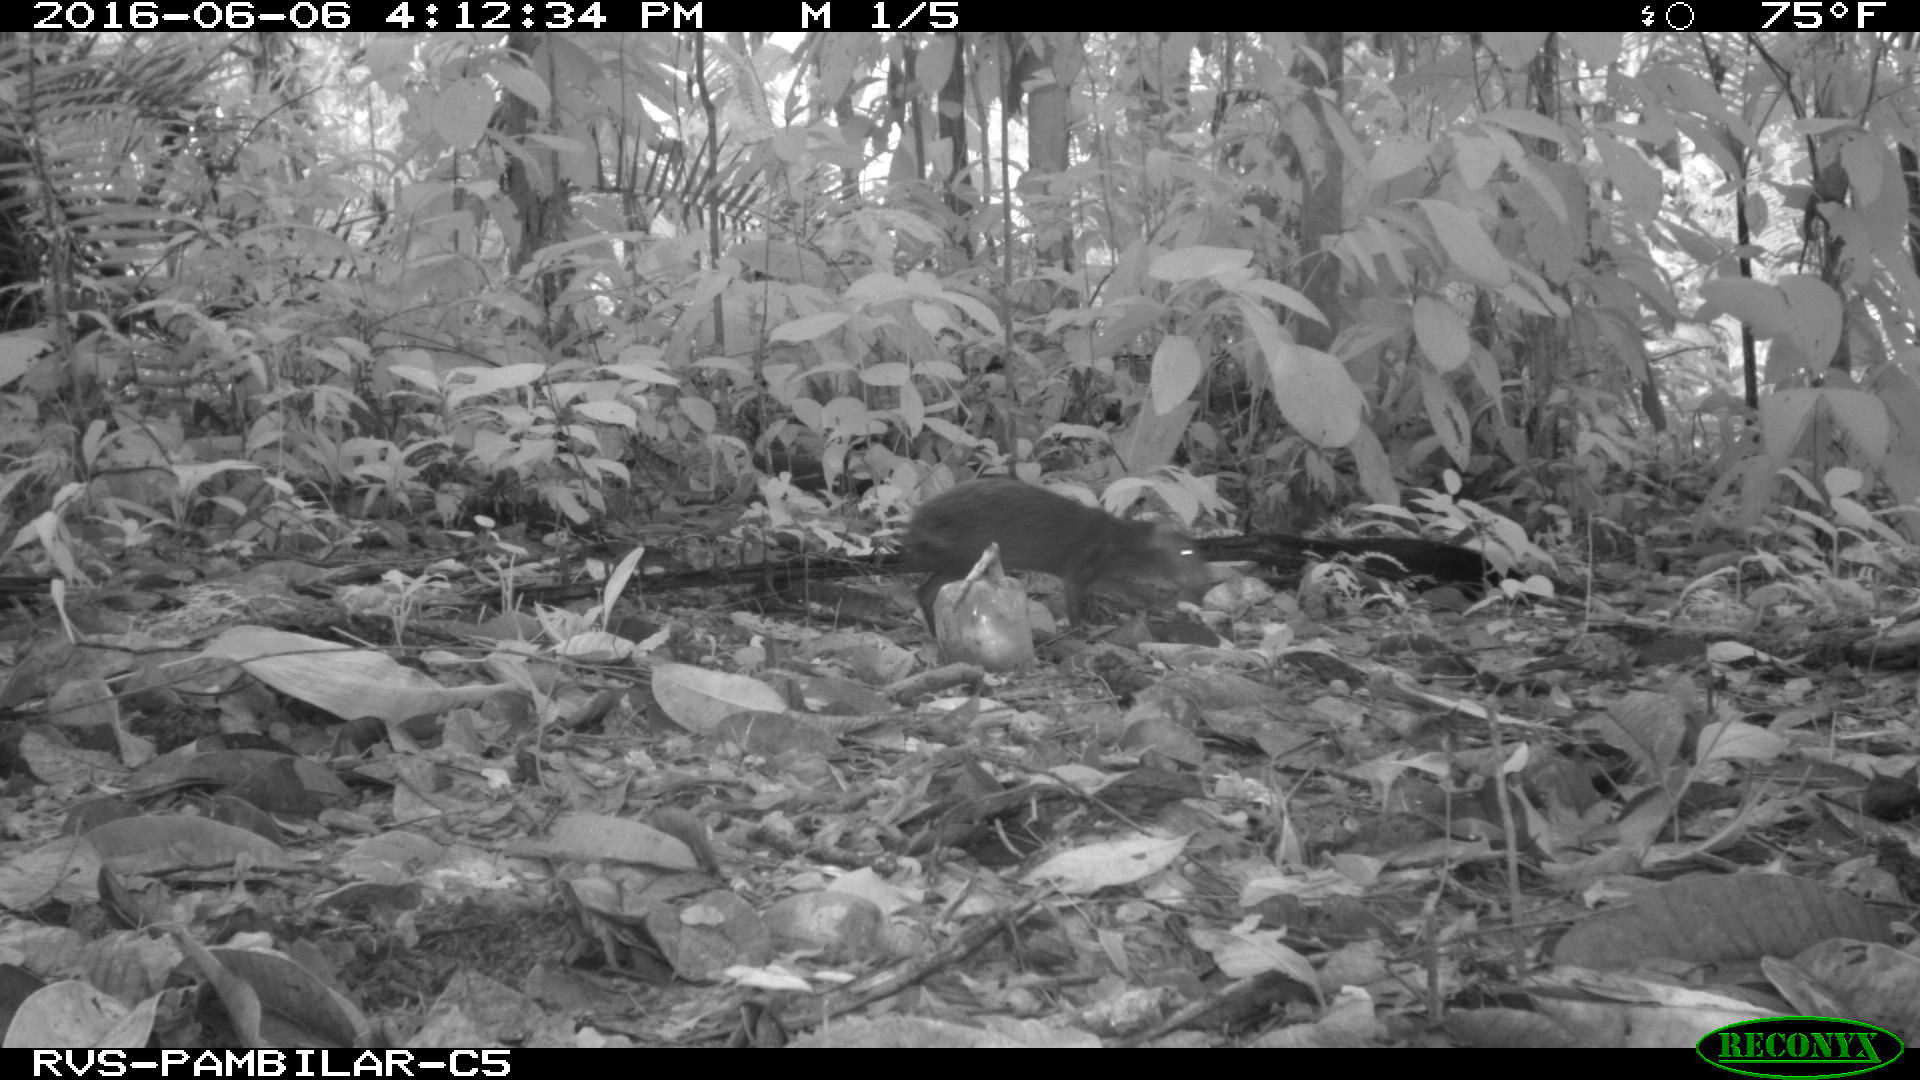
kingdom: Animalia
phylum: Chordata
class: Mammalia
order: Rodentia
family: Dasyproctidae
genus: Dasyprocta
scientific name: Dasyprocta punctata
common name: Central american agouti
